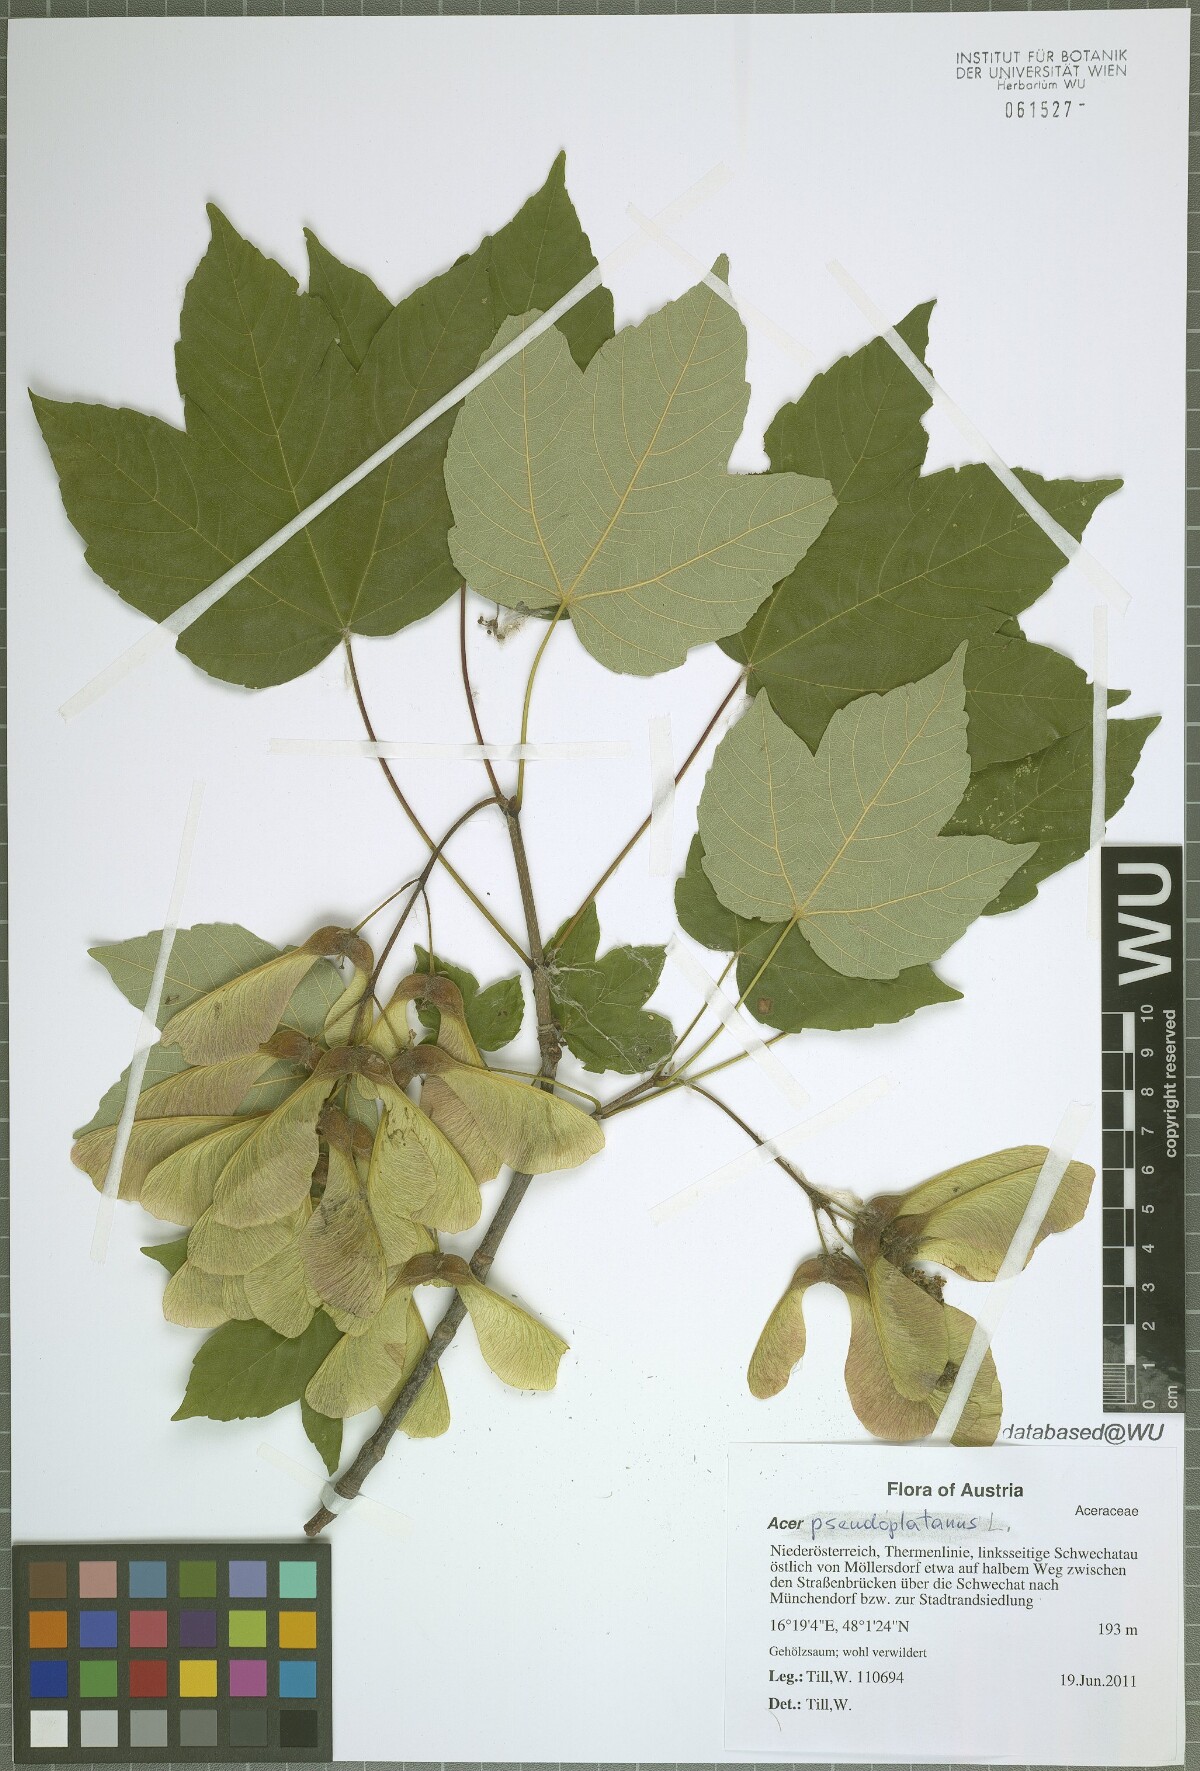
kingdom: Plantae
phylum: Tracheophyta
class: Magnoliopsida
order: Sapindales
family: Sapindaceae
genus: Acer
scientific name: Acer pseudoplatanus
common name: Sycamore
